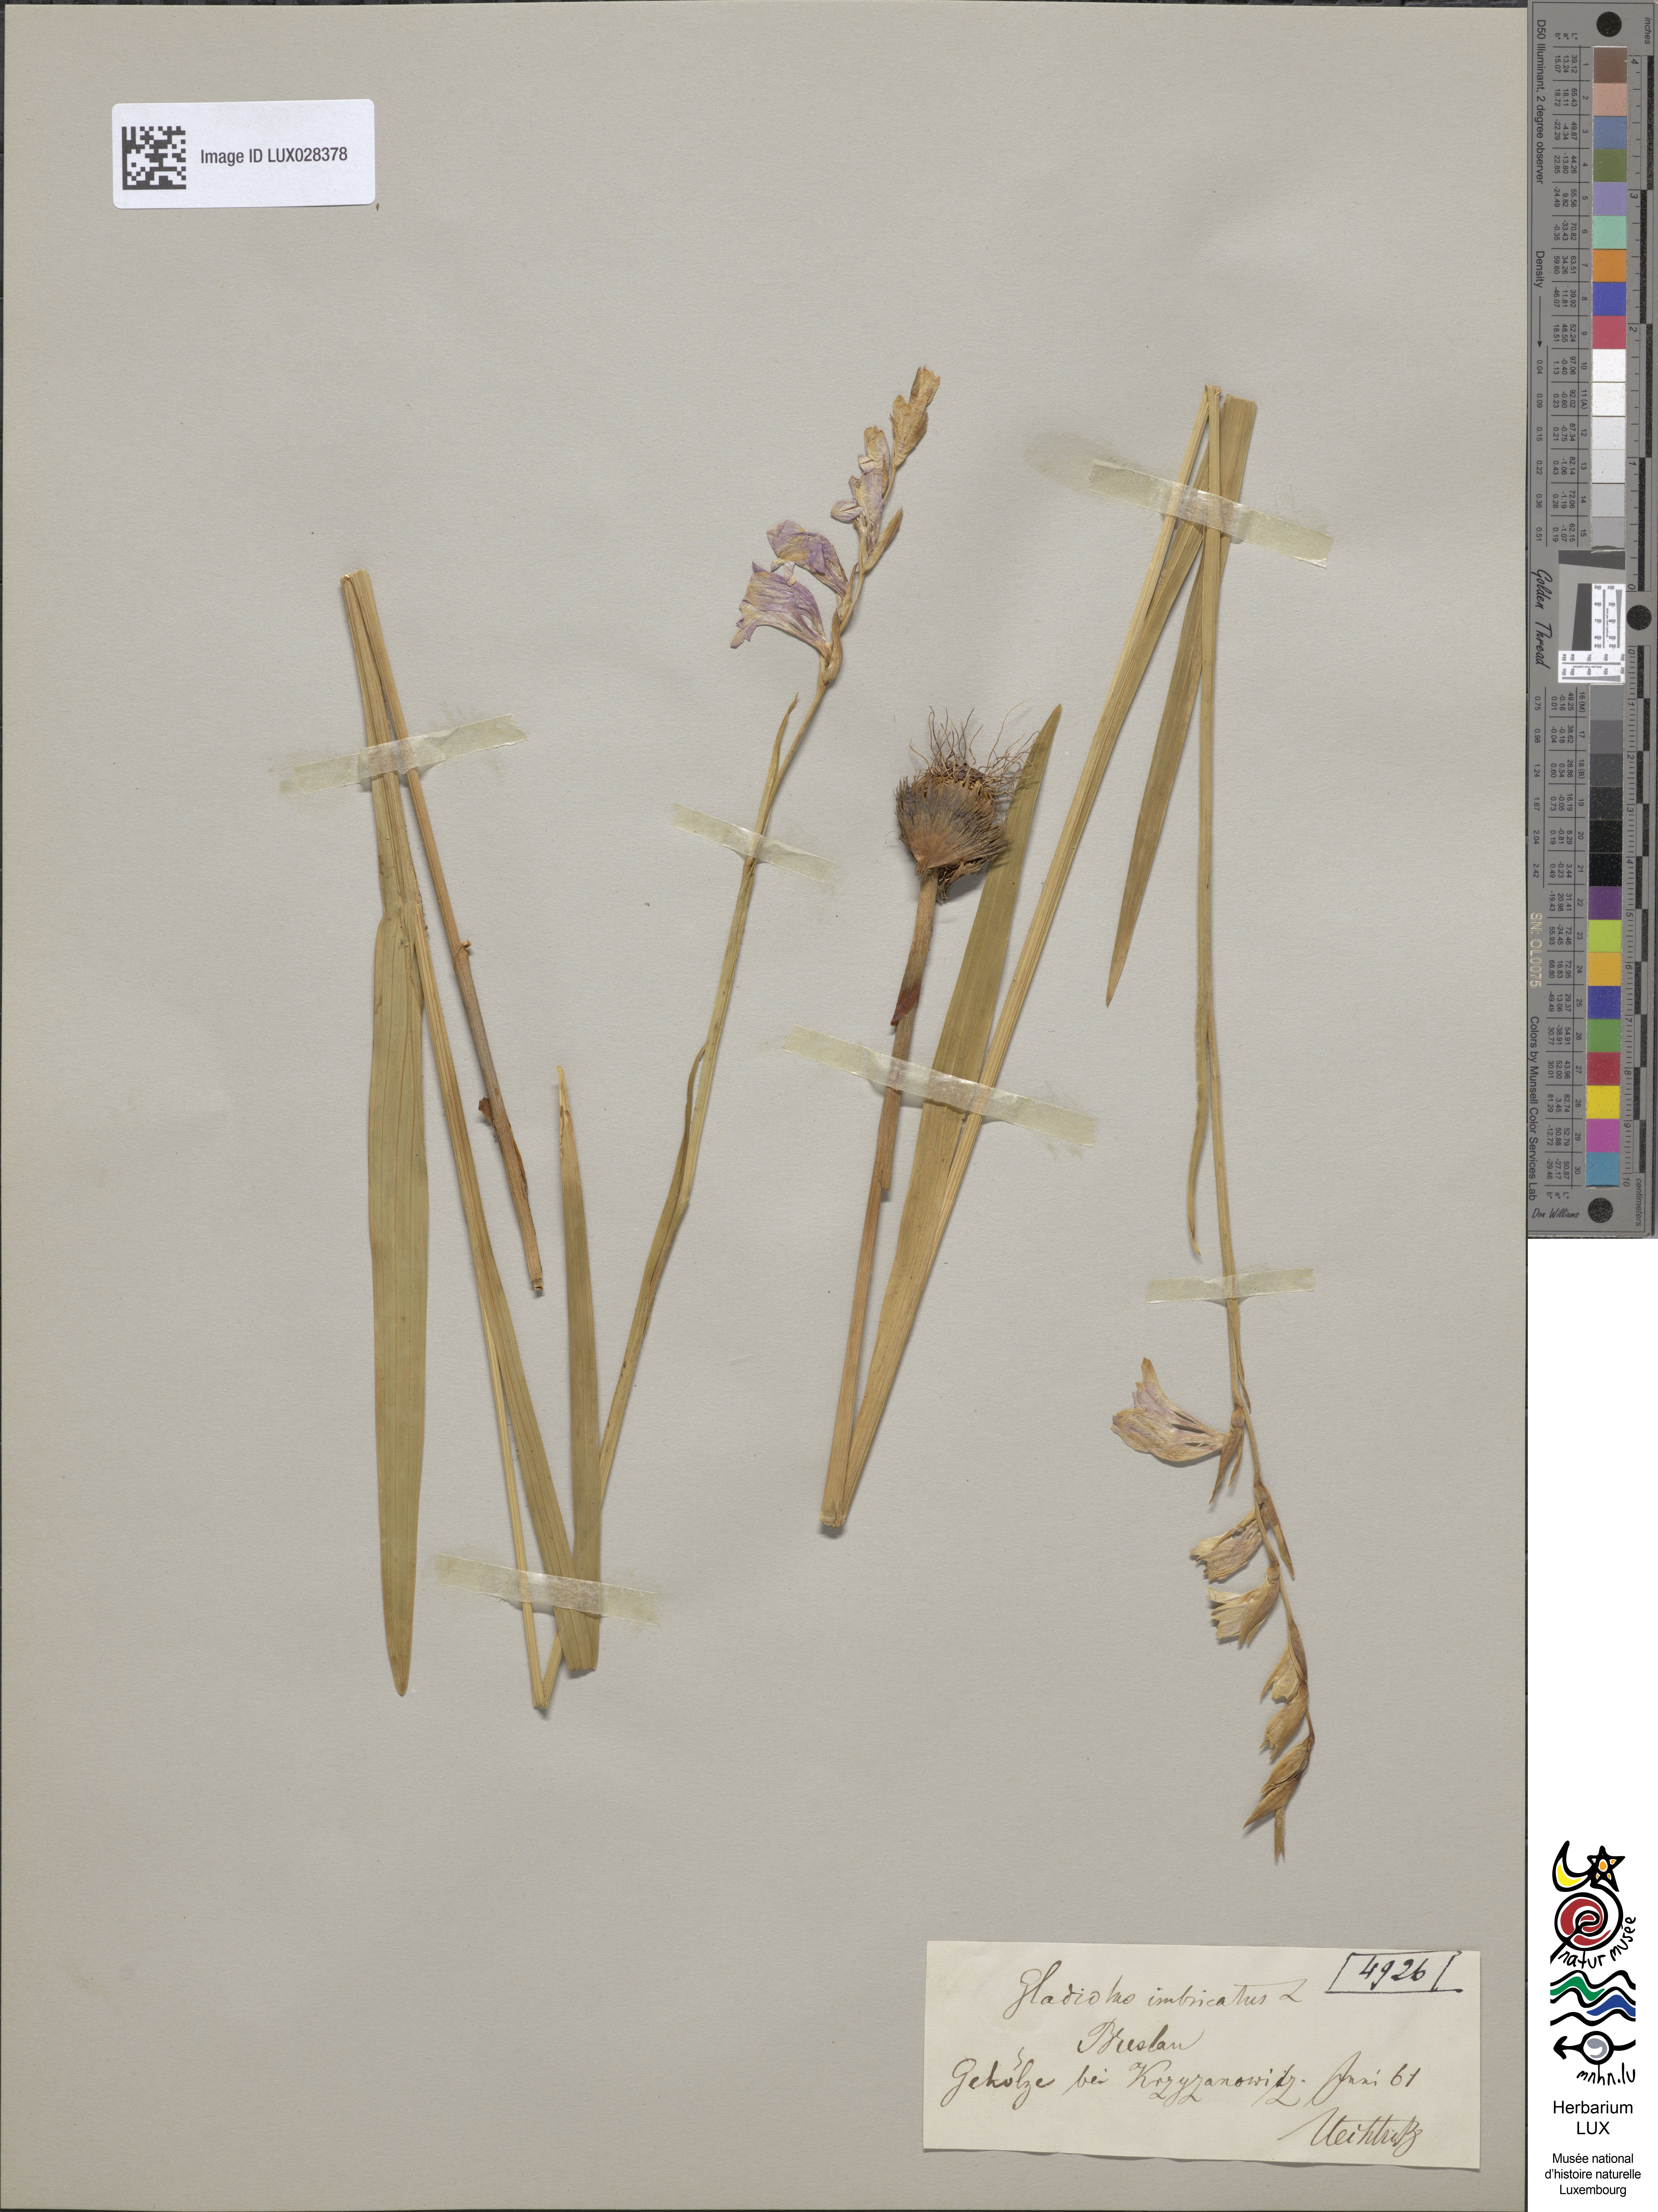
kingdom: Plantae
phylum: Tracheophyta
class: Liliopsida
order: Asparagales
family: Iridaceae
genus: Gladiolus
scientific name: Gladiolus imbricatus
